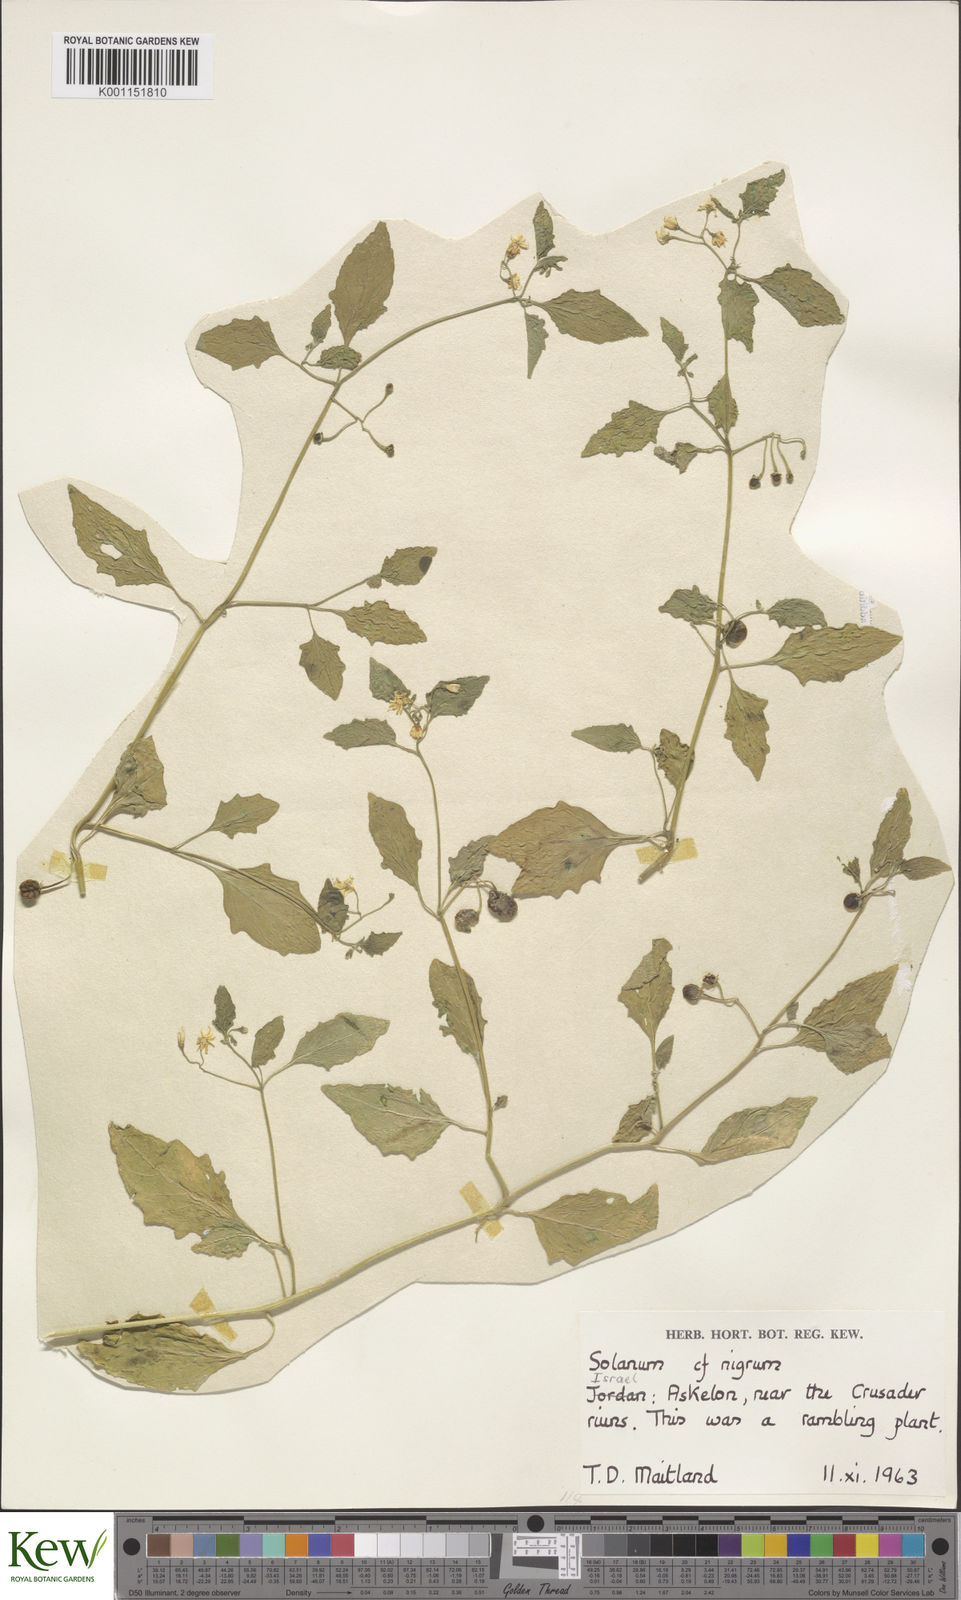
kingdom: Plantae
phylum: Tracheophyta
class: Magnoliopsida
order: Solanales
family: Solanaceae
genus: Solanum
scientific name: Solanum villosum
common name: Red nightshade
